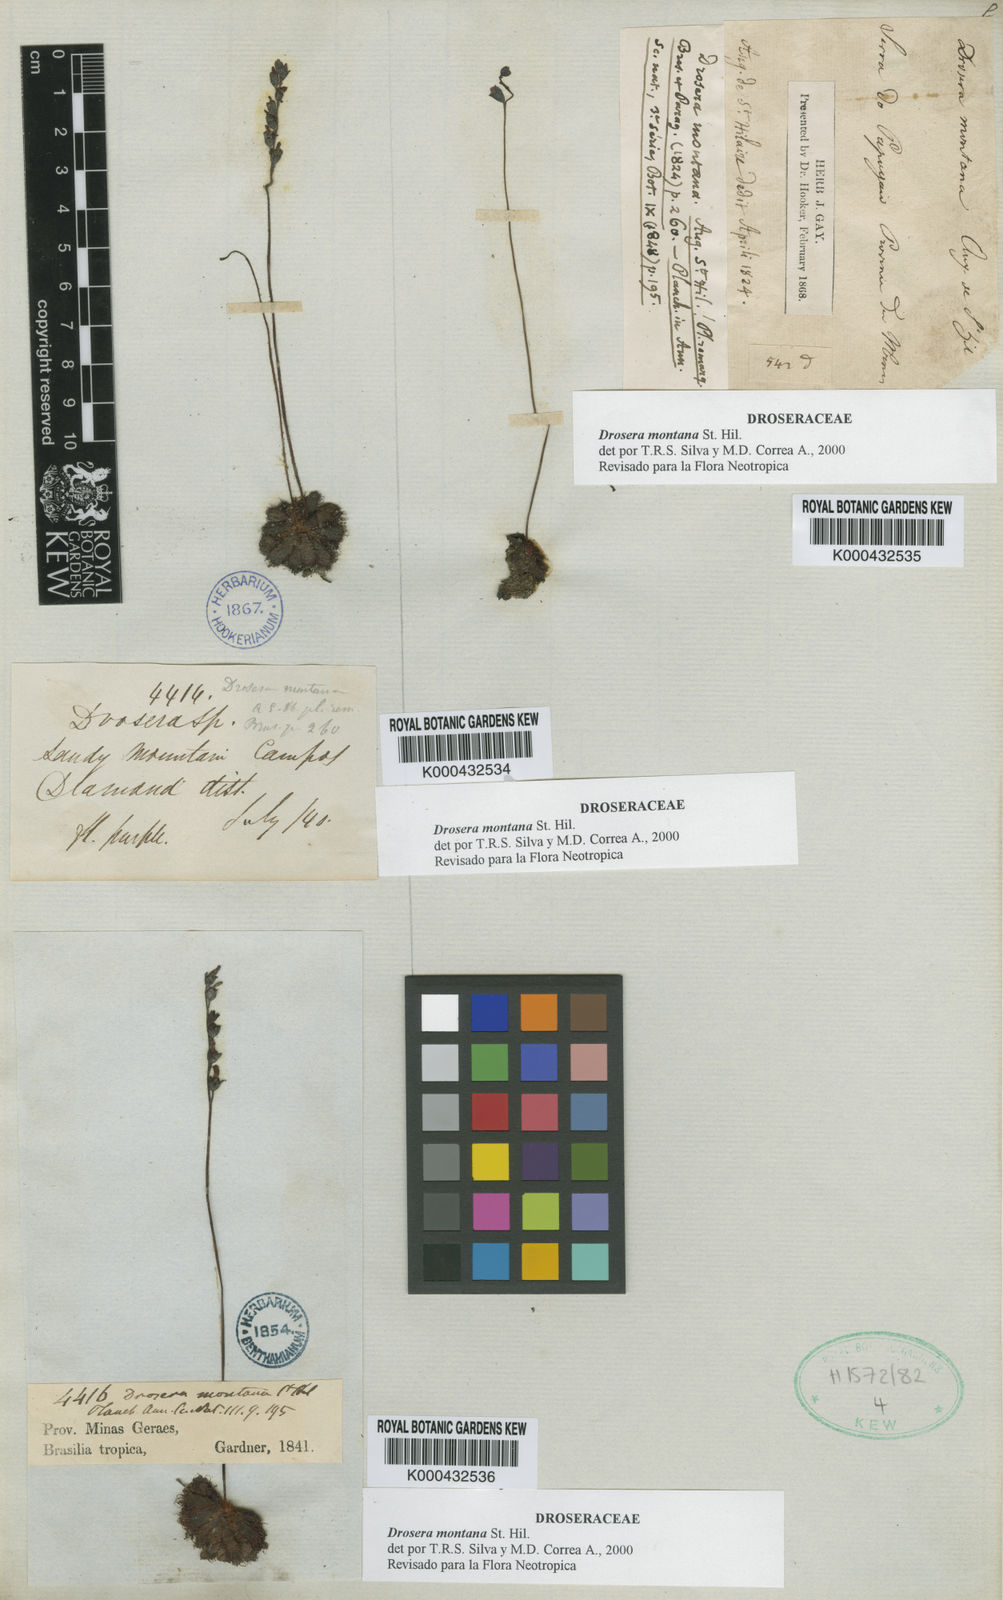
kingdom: Plantae
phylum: Tracheophyta
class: Magnoliopsida
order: Caryophyllales
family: Droseraceae
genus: Drosera
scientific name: Drosera montana
